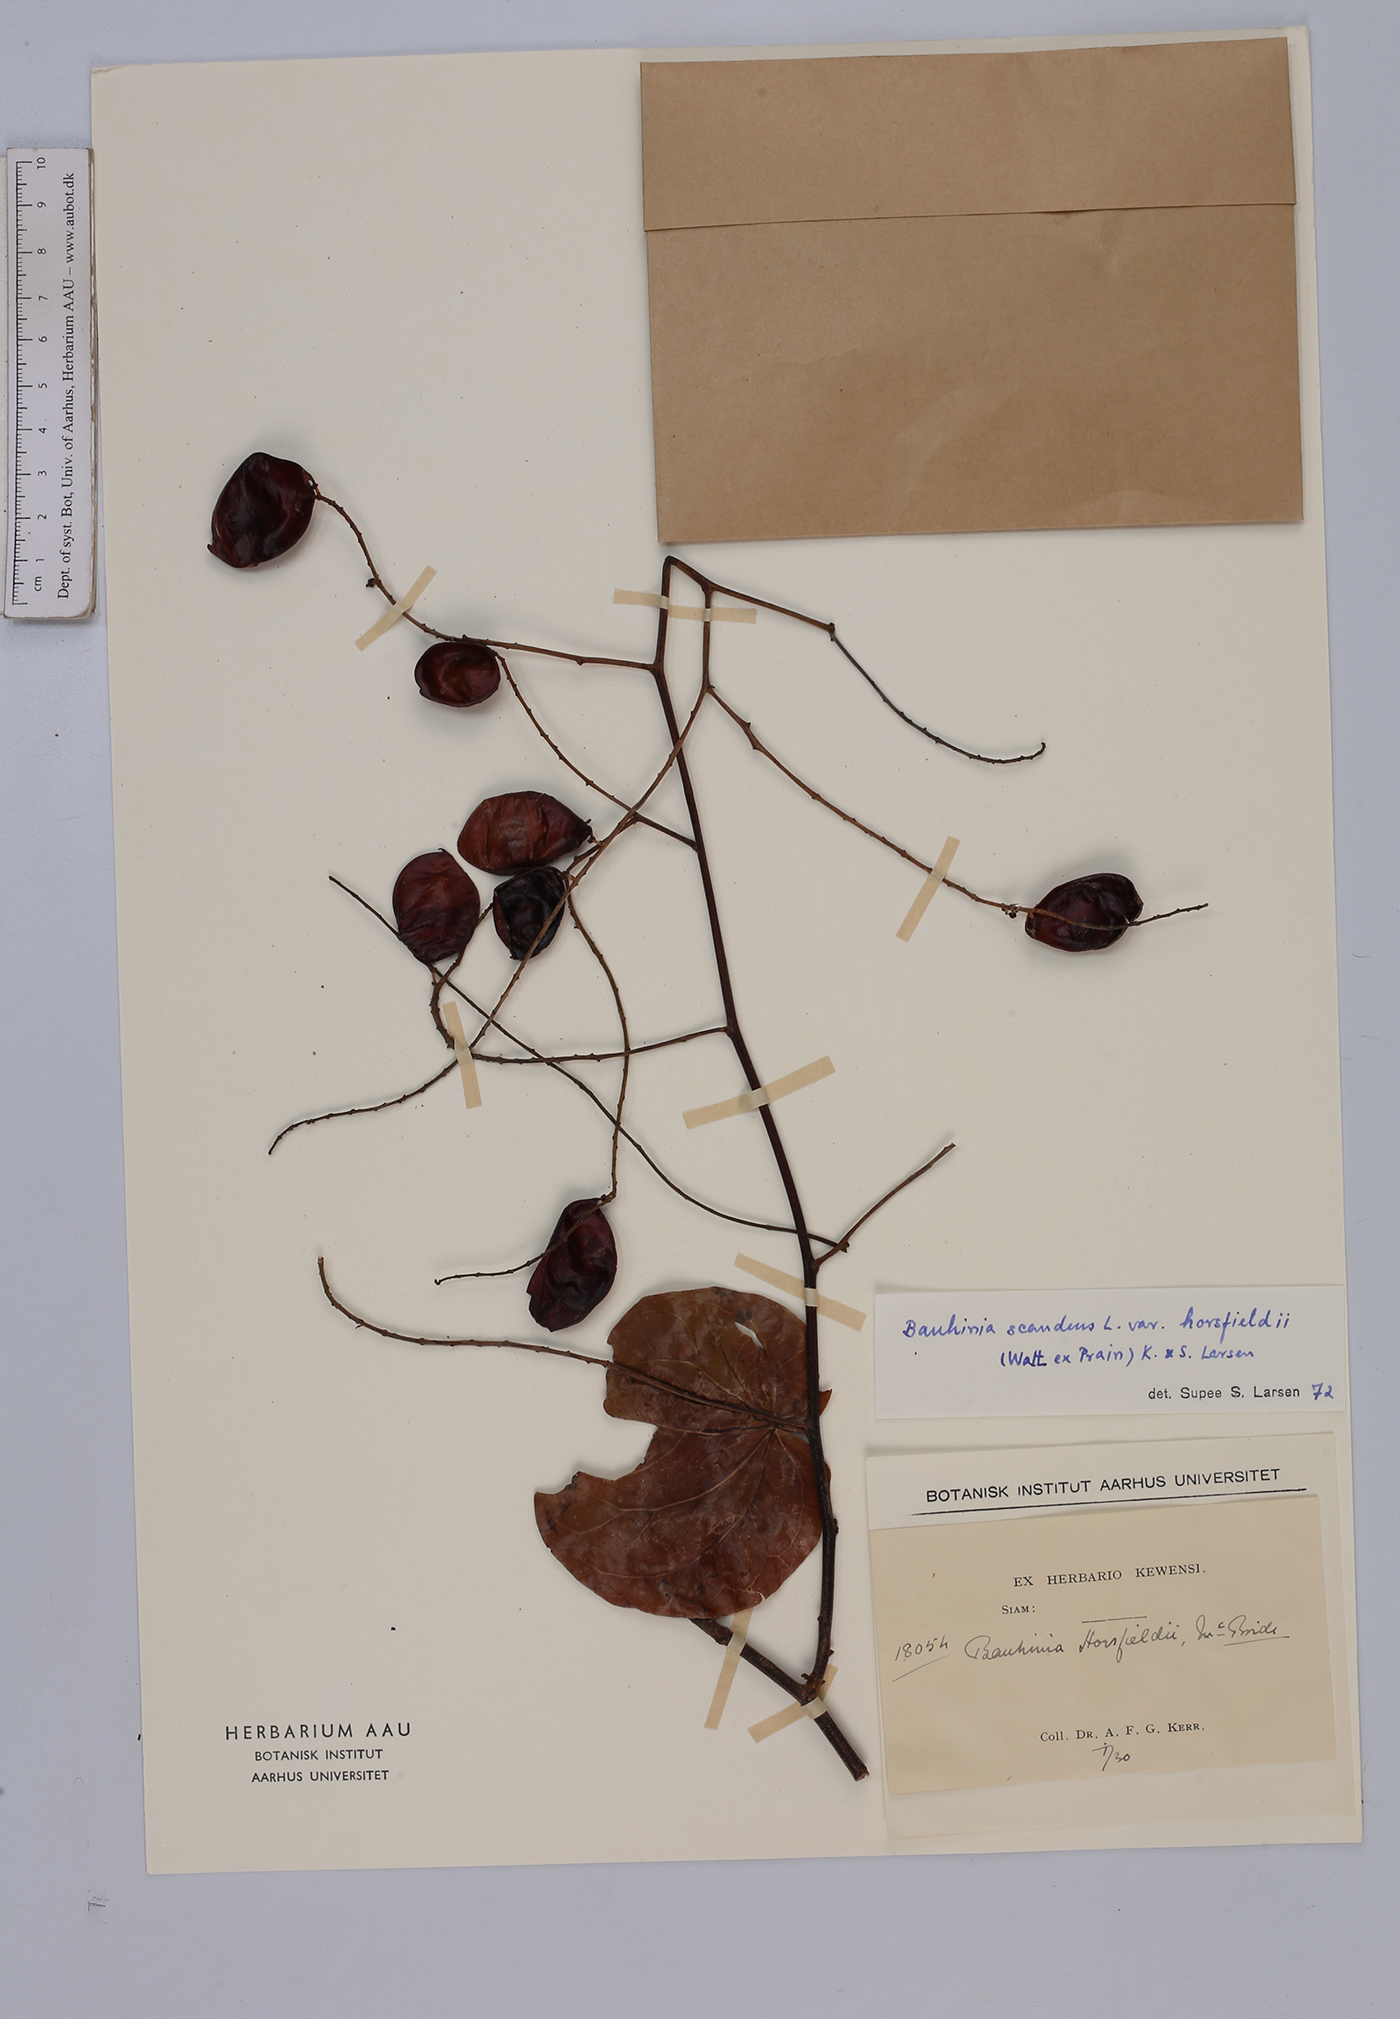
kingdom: Plantae
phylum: Tracheophyta
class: Magnoliopsida
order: Fabales
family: Fabaceae
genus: Phanera
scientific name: Phanera scandens
